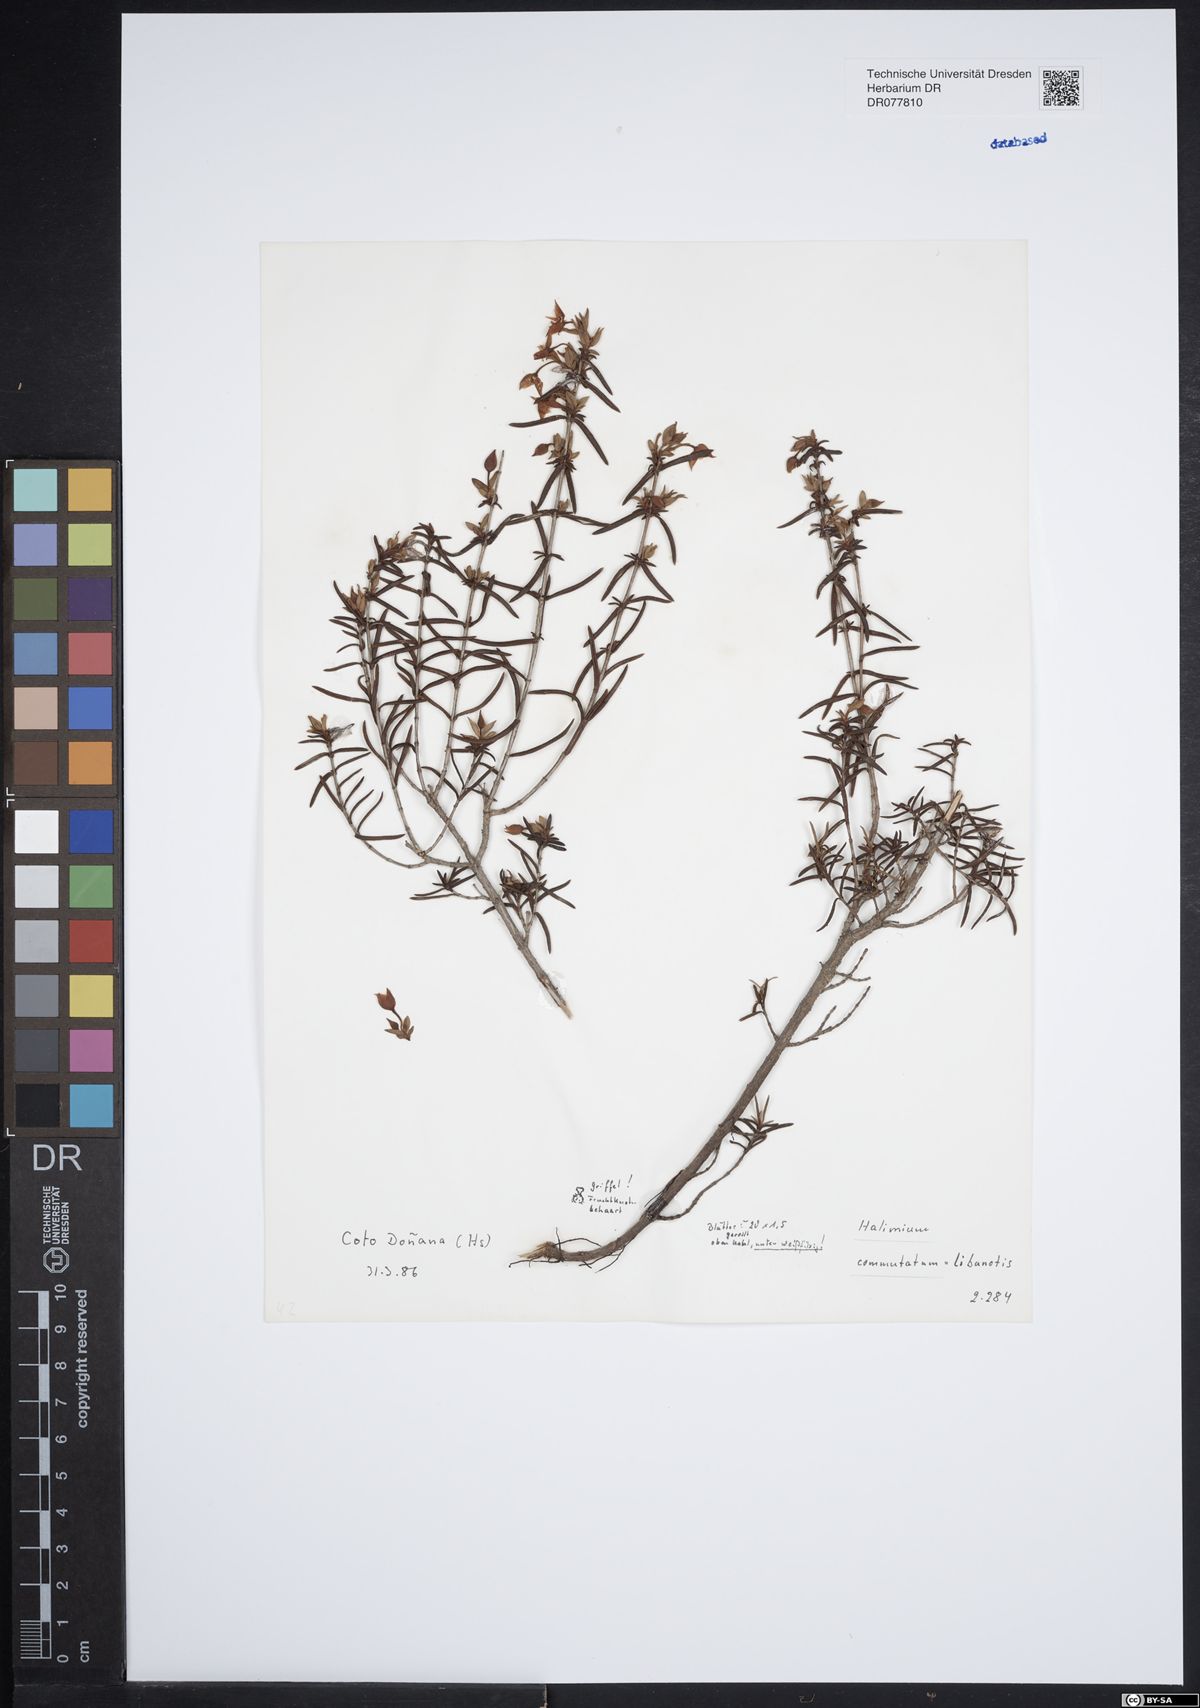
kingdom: Plantae
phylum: Tracheophyta
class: Magnoliopsida
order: Malvales
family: Cistaceae
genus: Halimium
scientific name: Halimium calycinum
